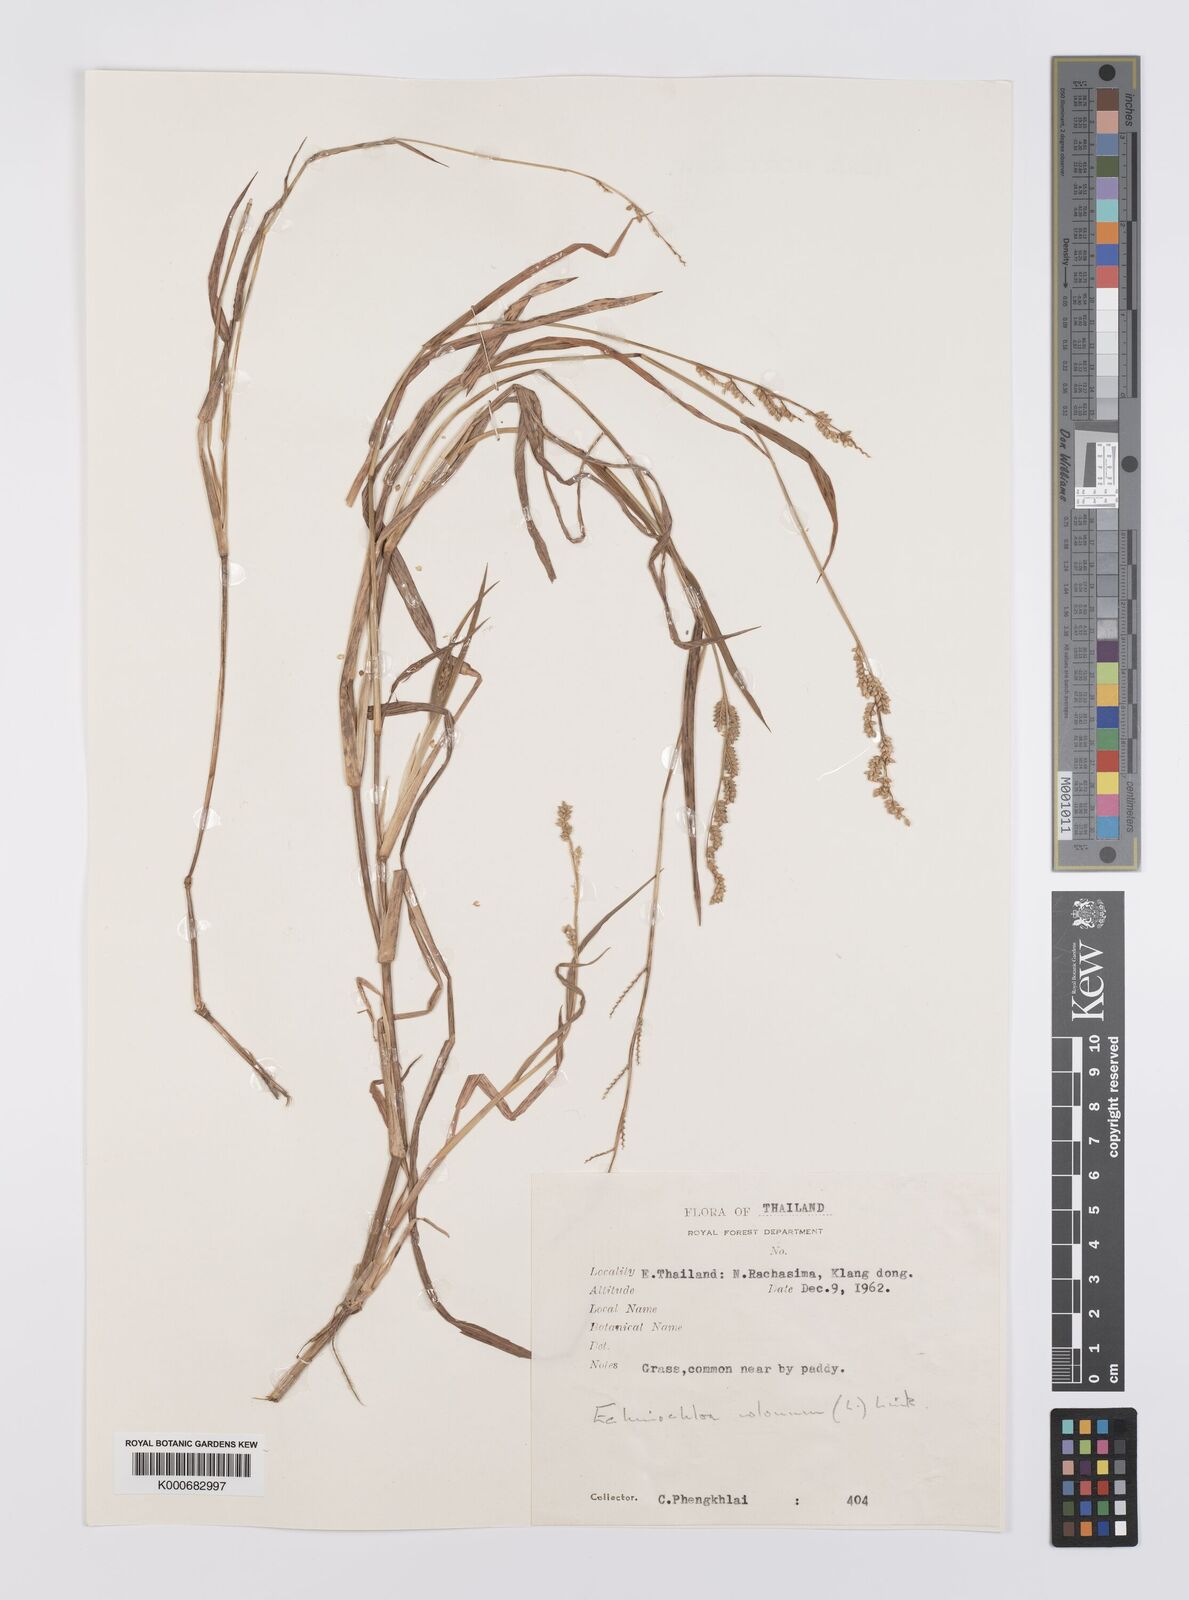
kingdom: Plantae
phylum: Tracheophyta
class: Liliopsida
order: Poales
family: Poaceae
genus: Echinochloa
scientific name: Echinochloa colonum
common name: Jungle rice
